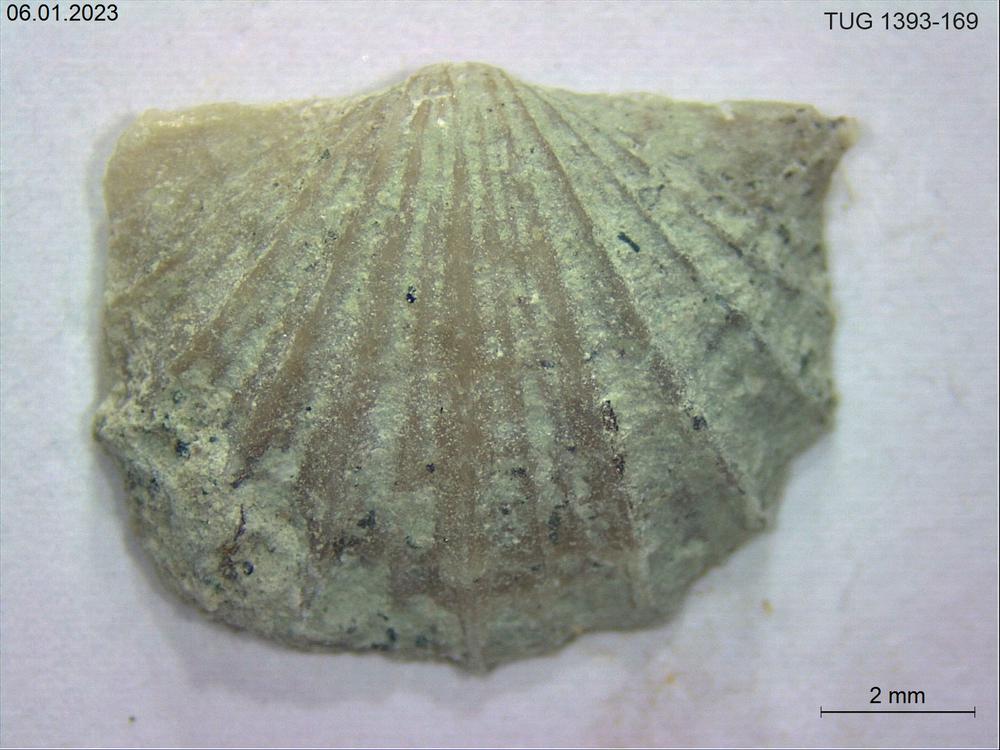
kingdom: Animalia
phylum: Brachiopoda
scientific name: Brachiopoda
